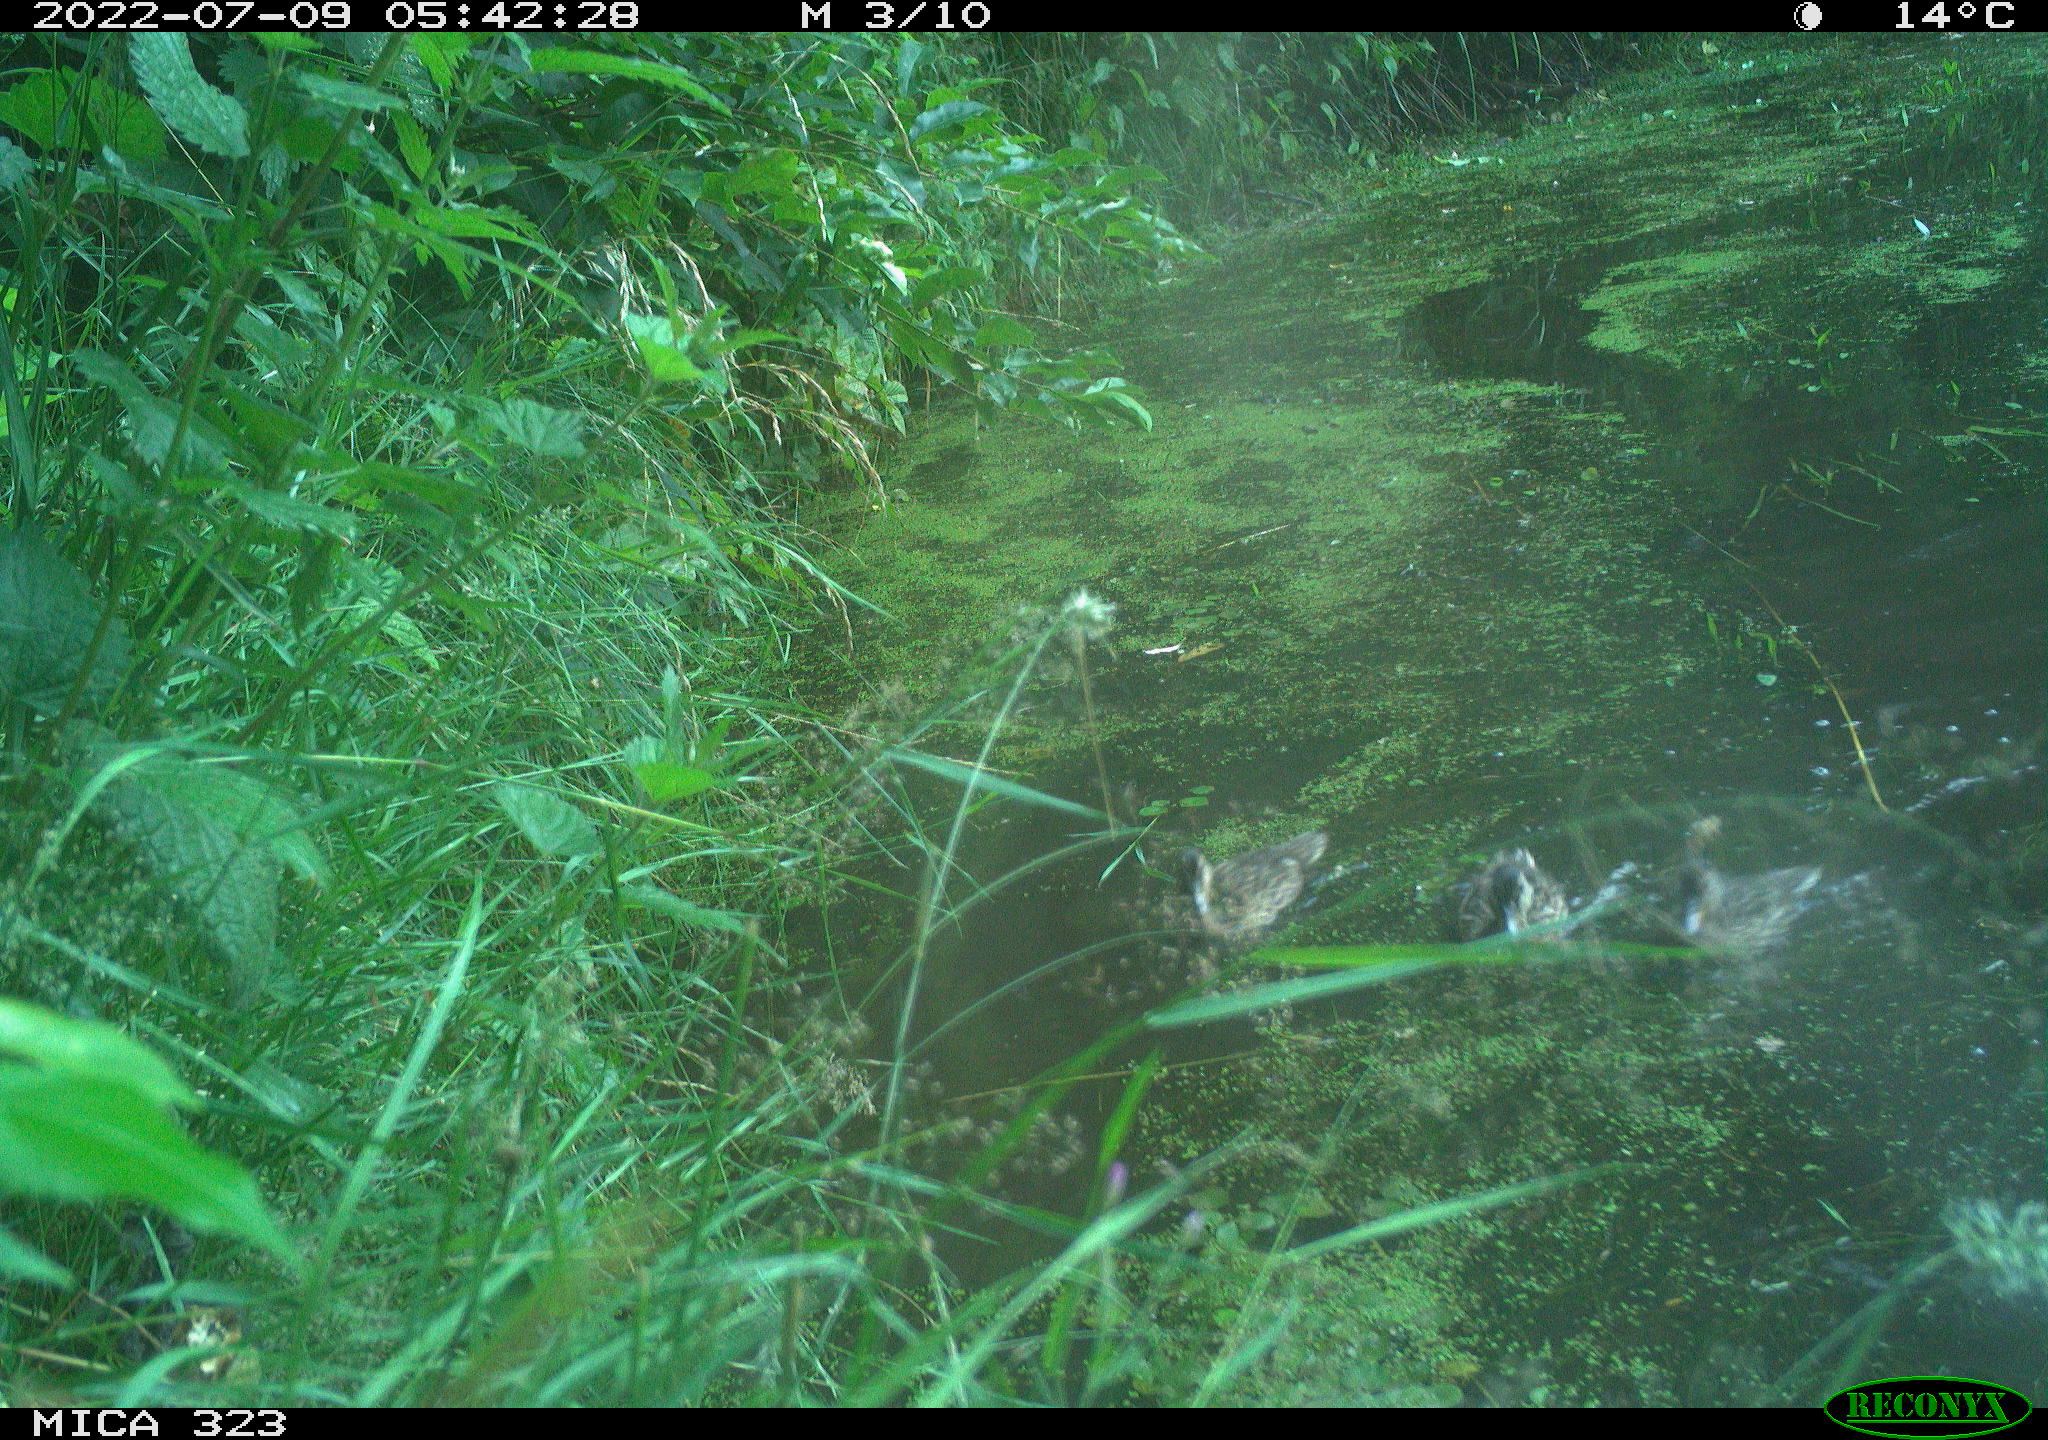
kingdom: Animalia
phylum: Chordata
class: Aves
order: Anseriformes
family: Anatidae
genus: Anas
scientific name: Anas platyrhynchos
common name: Mallard
